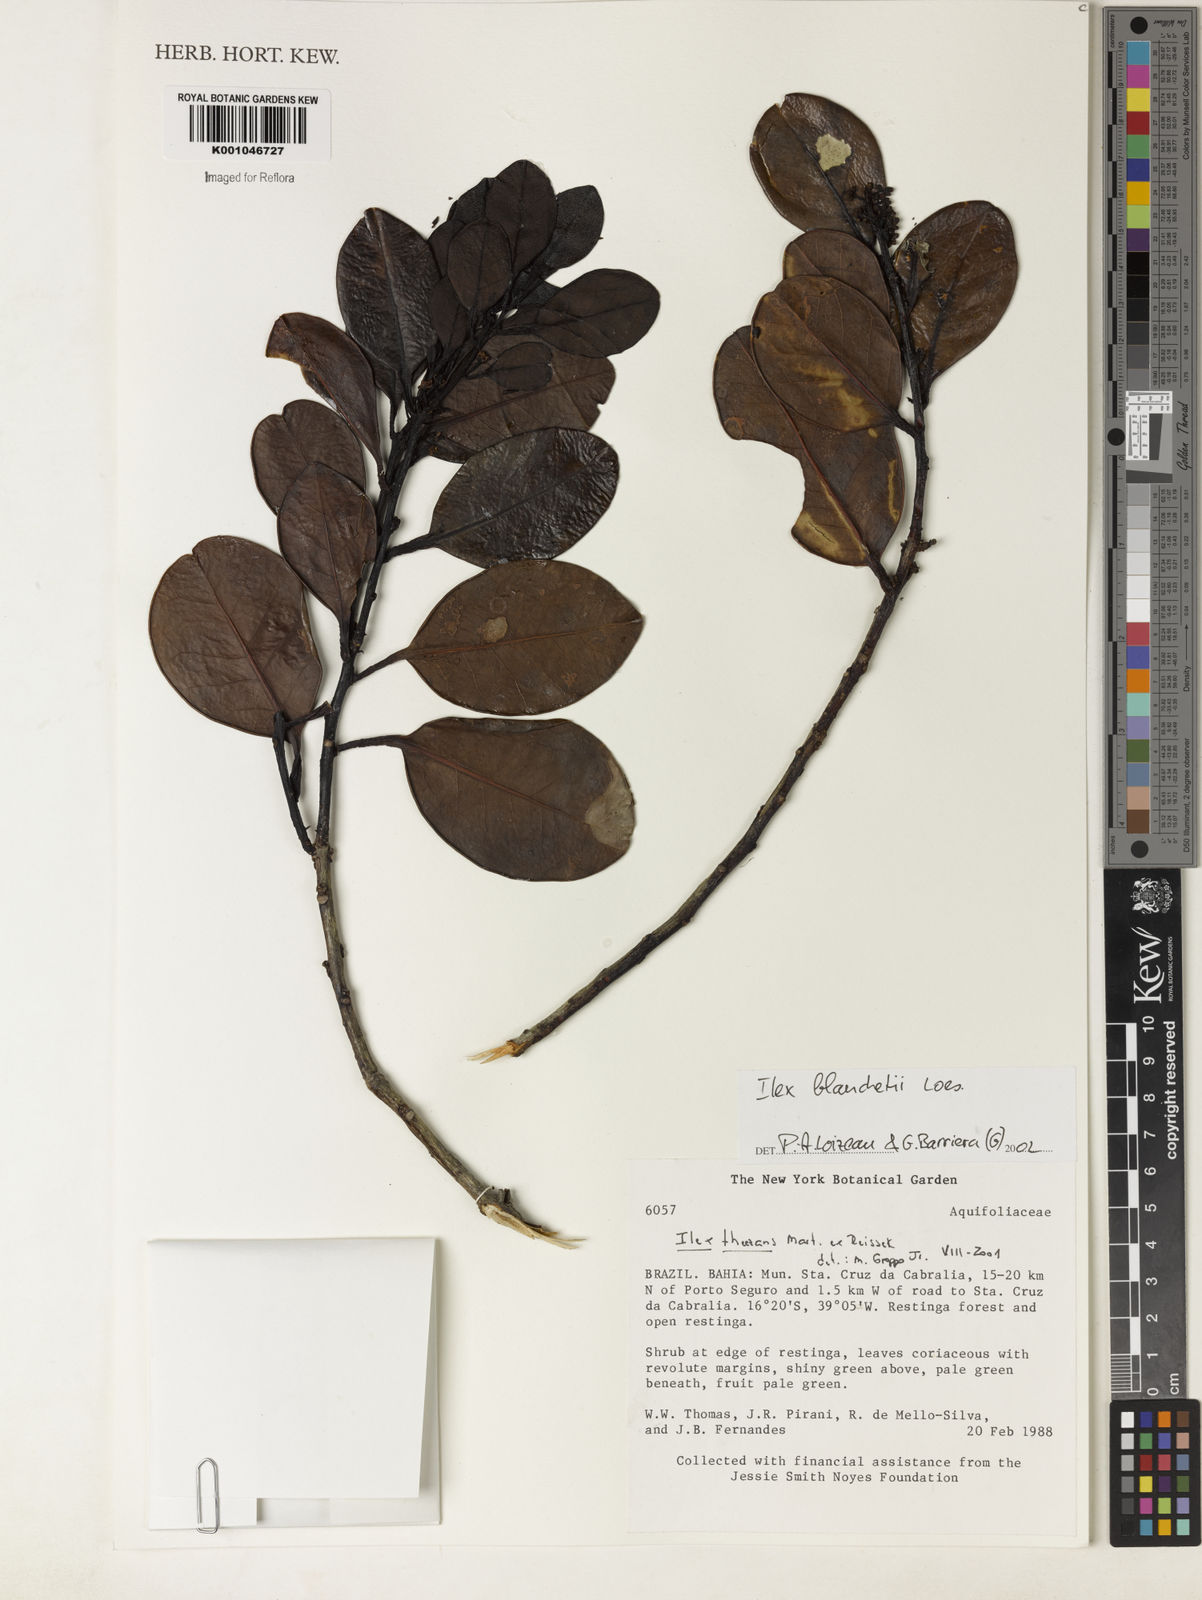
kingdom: Plantae
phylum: Tracheophyta
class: Magnoliopsida
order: Aquifoliales
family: Aquifoliaceae
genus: Ilex
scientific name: Ilex blanchetii
